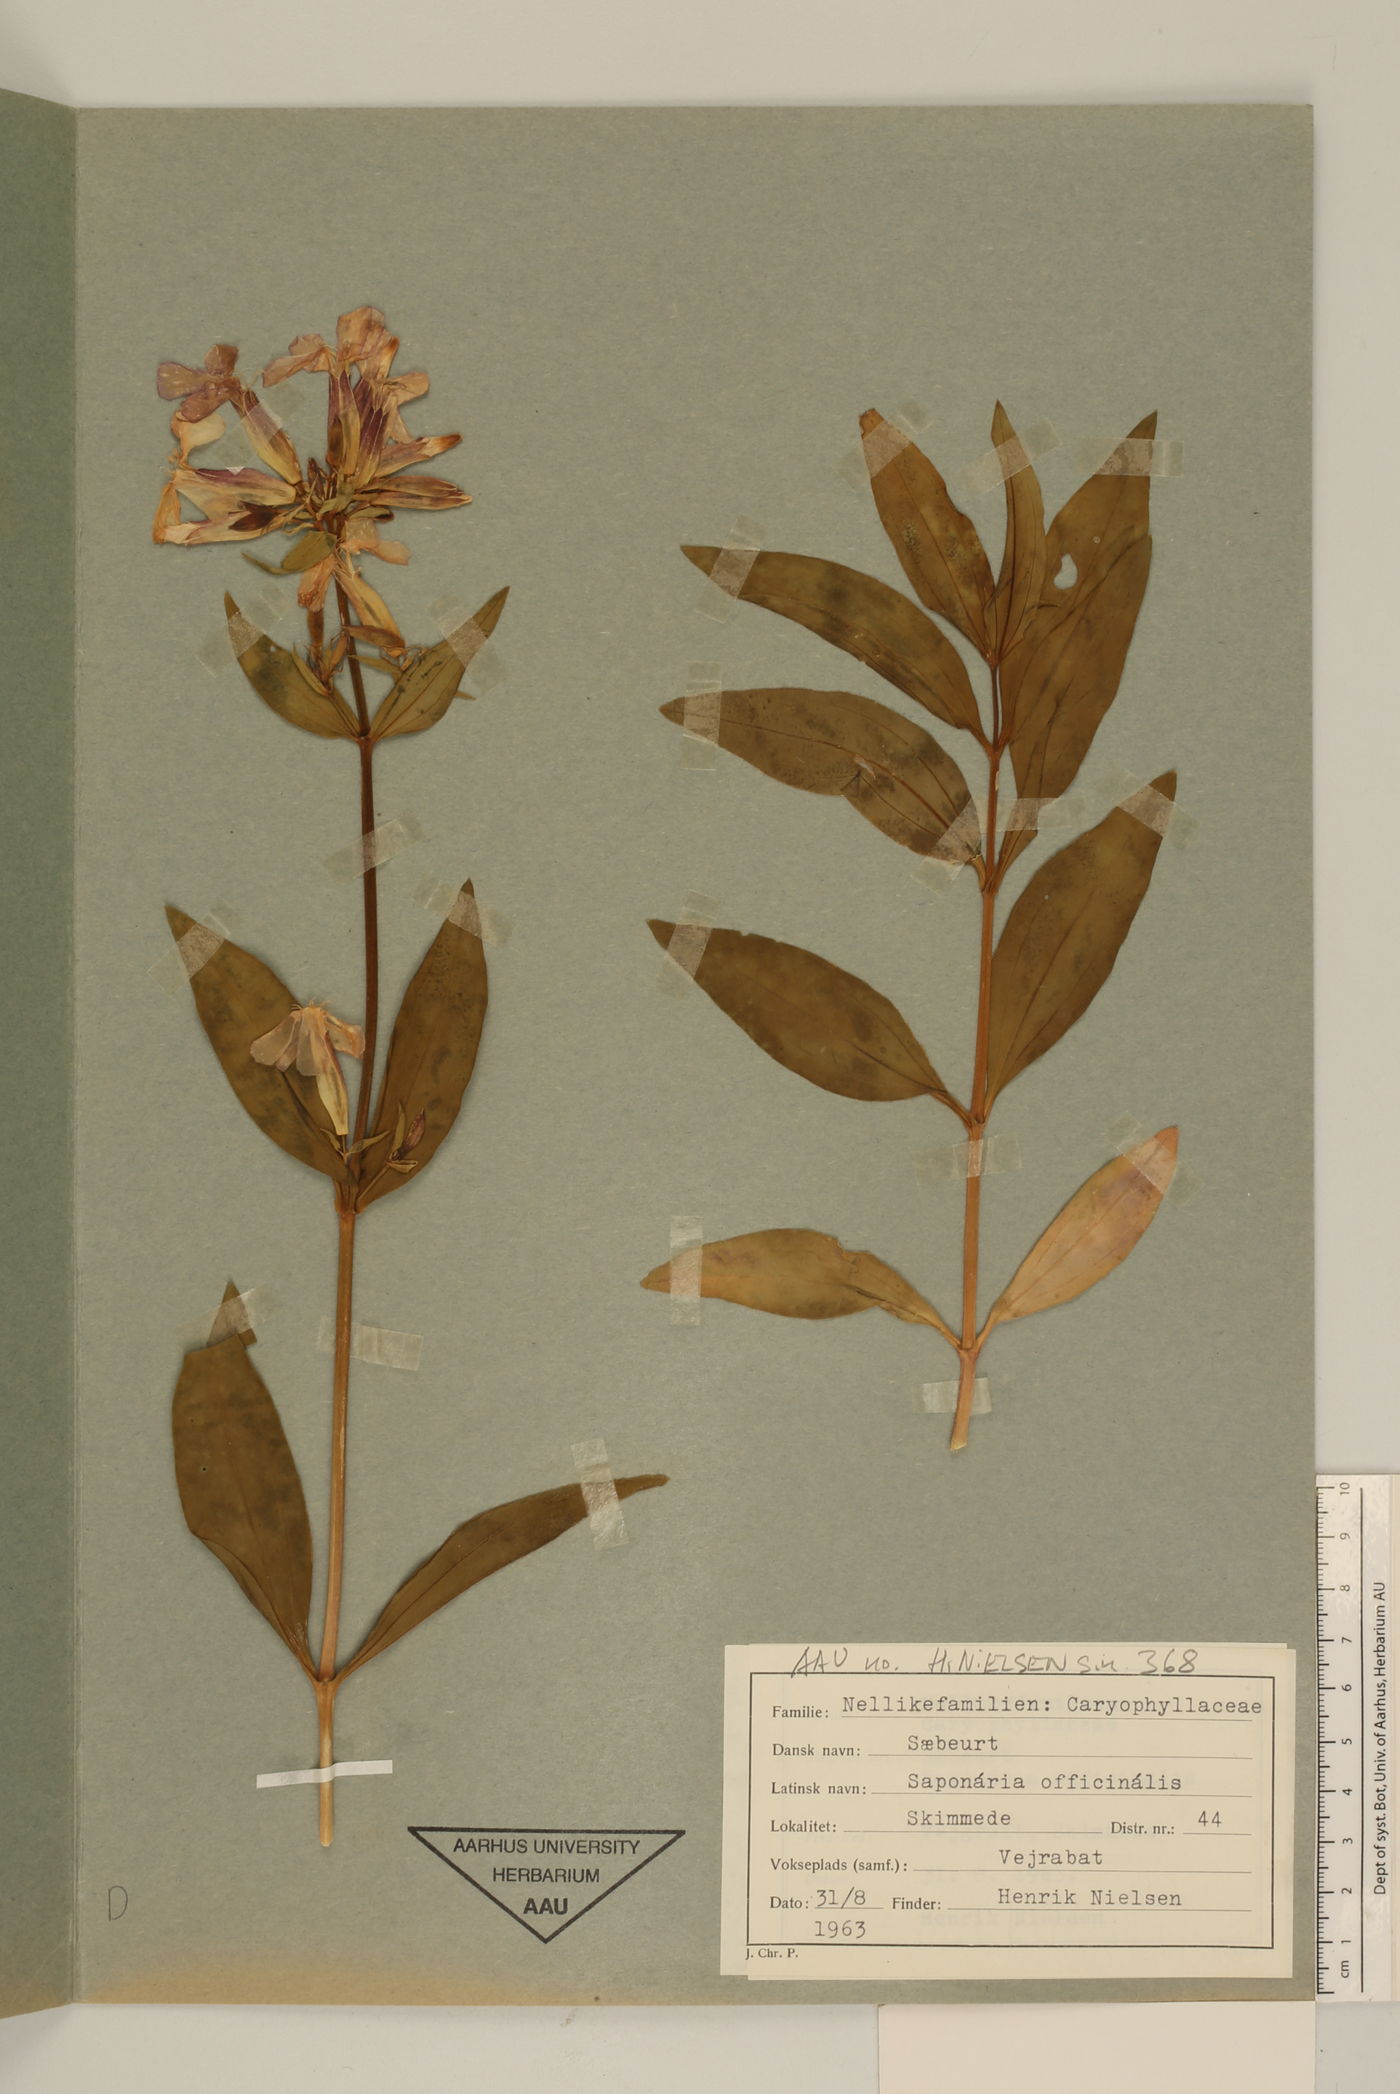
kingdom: Plantae
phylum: Tracheophyta
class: Magnoliopsida
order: Caryophyllales
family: Caryophyllaceae
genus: Saponaria
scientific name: Saponaria officinalis
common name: Soapwort
